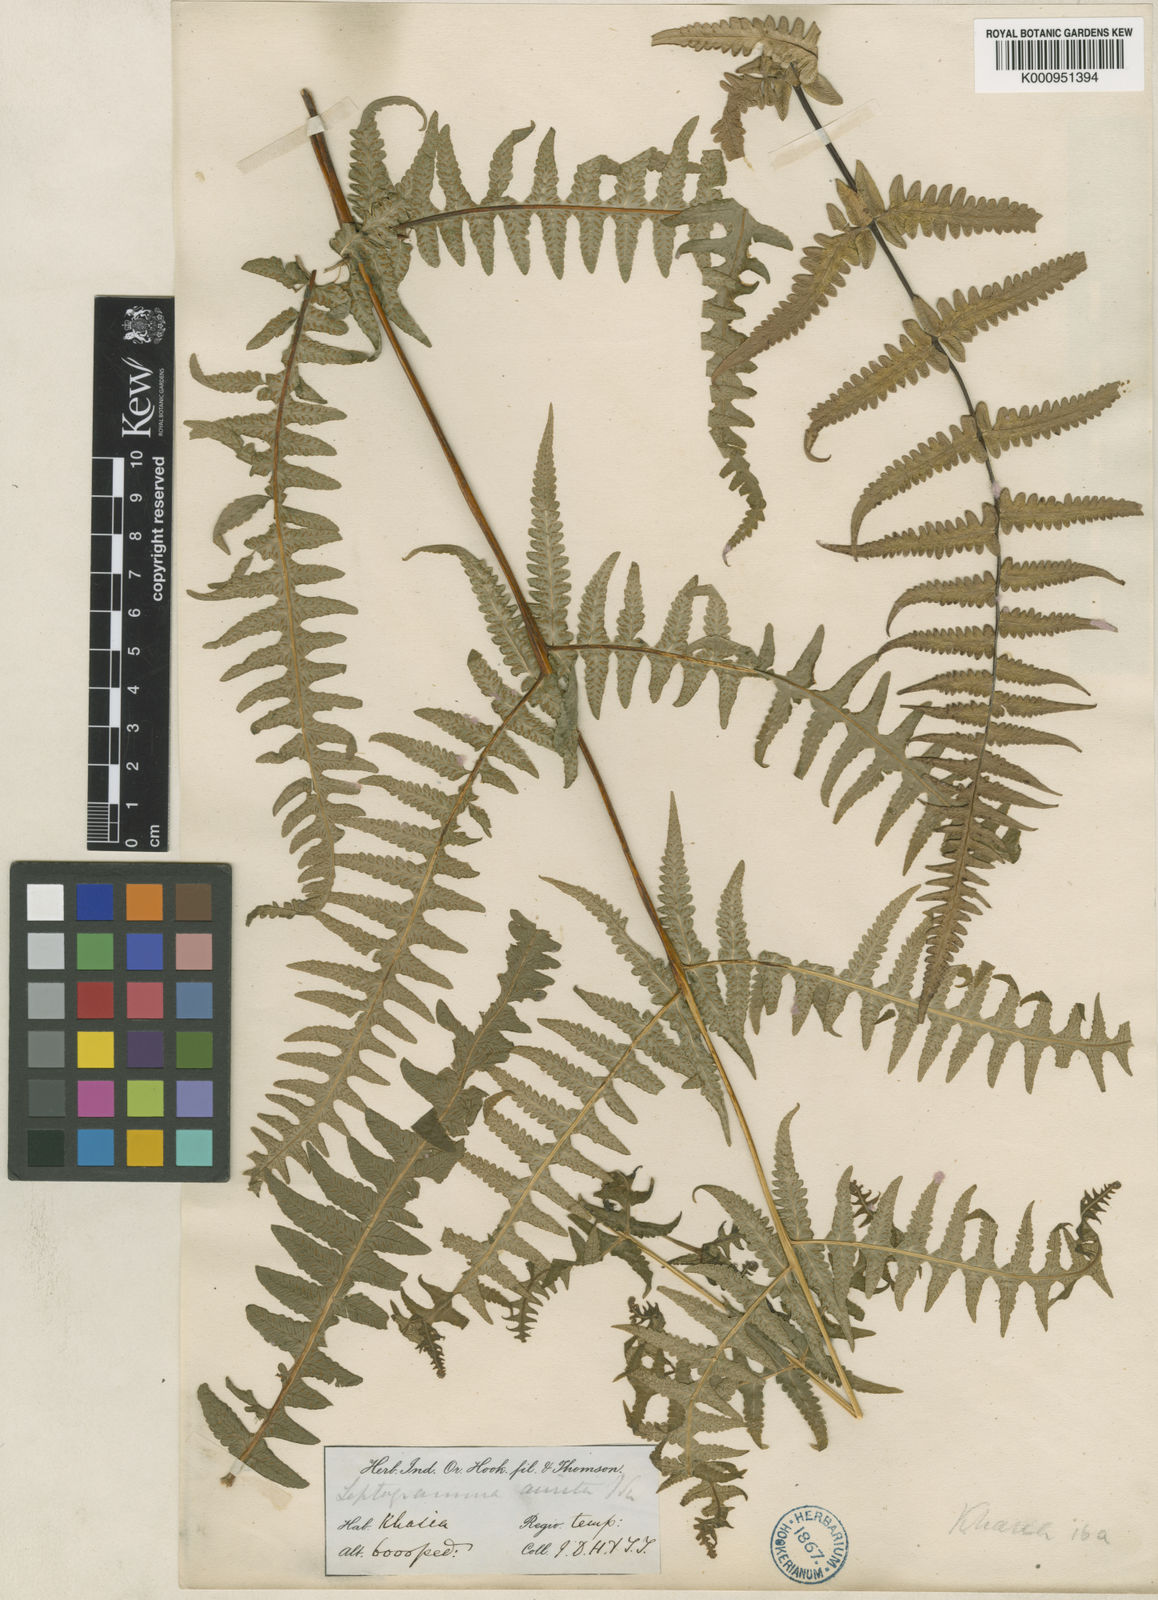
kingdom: Plantae
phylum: Tracheophyta
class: Polypodiopsida
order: Polypodiales
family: Thelypteridaceae
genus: Pseudophegopteris
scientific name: Pseudophegopteris aurita
